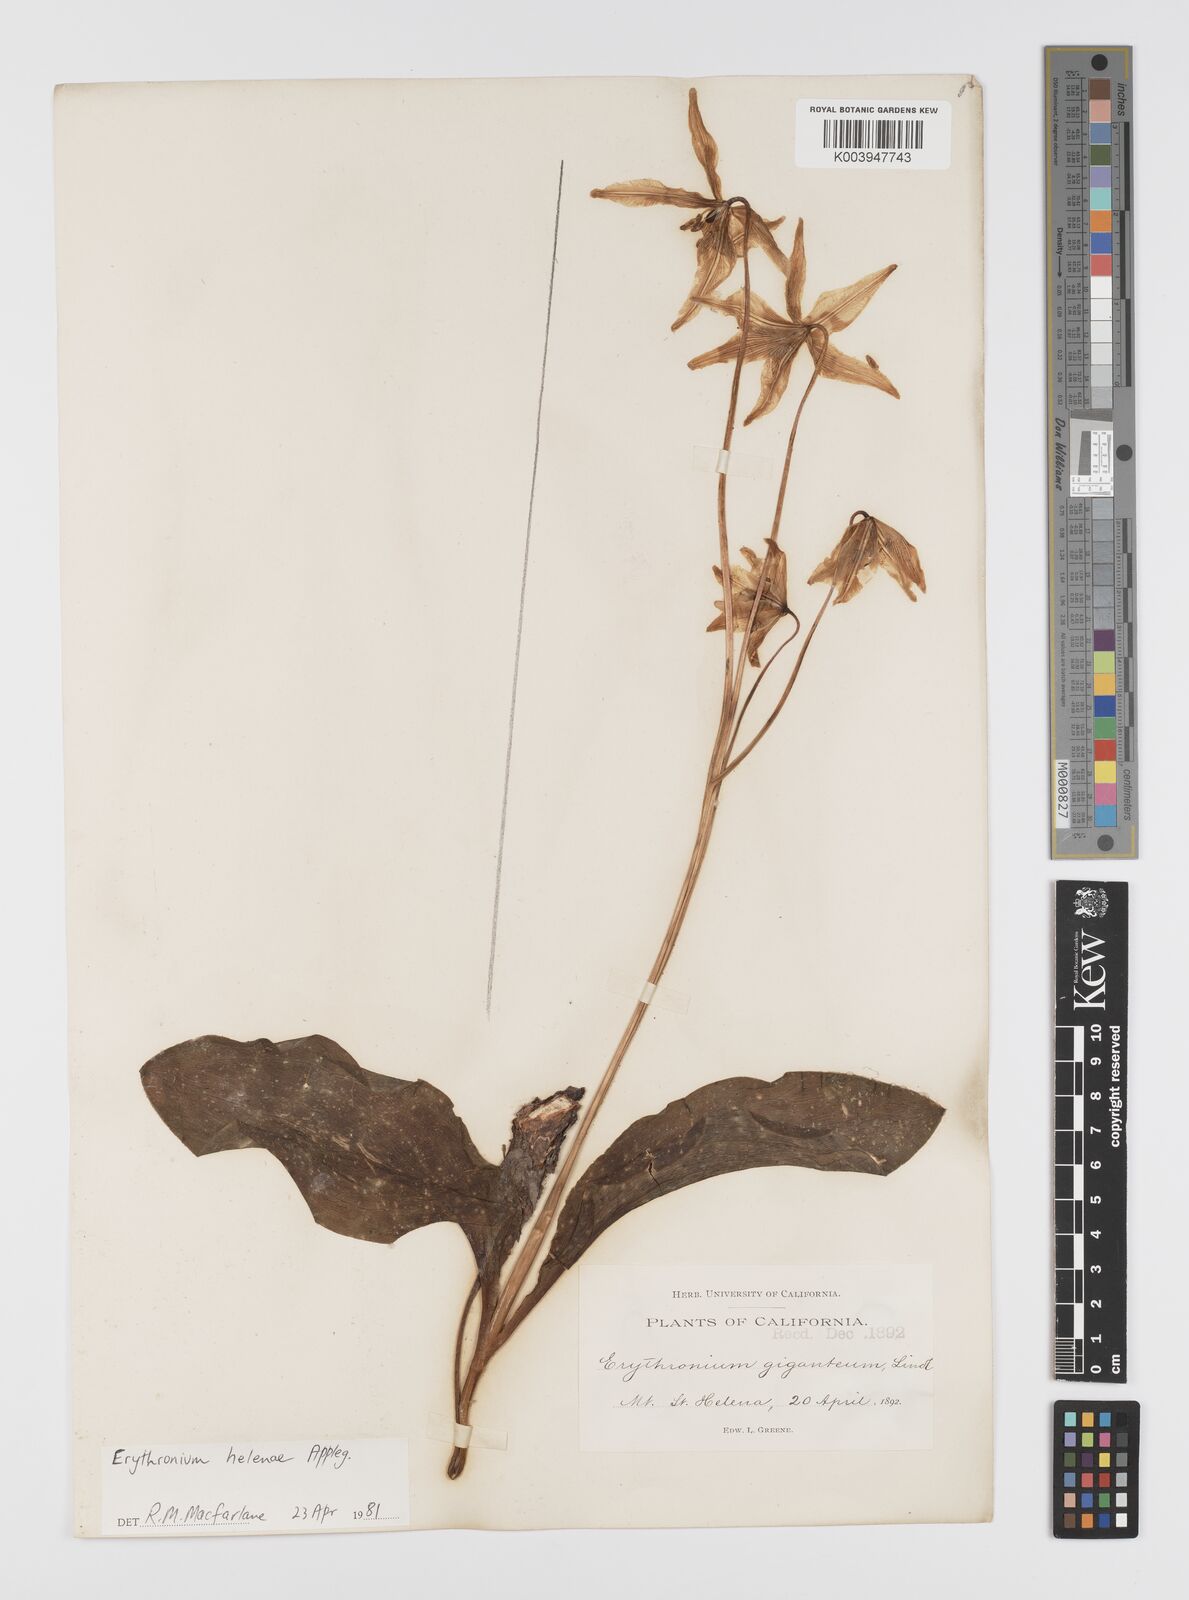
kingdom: Plantae
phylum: Tracheophyta
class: Liliopsida
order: Liliales
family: Liliaceae
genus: Erythronium
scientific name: Erythronium helenae
